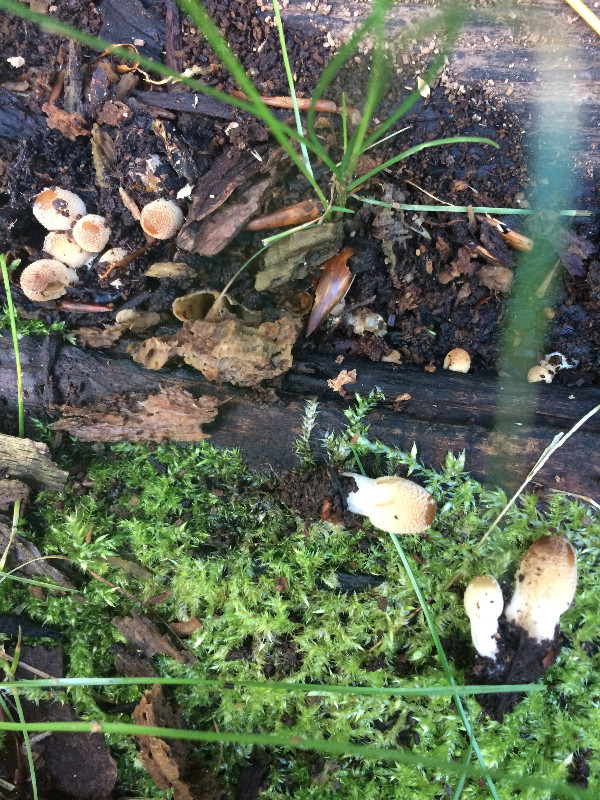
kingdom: Fungi
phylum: Basidiomycota
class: Agaricomycetes
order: Agaricales
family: Psathyrellaceae
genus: Coprinellus
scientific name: Coprinellus
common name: blækhat
